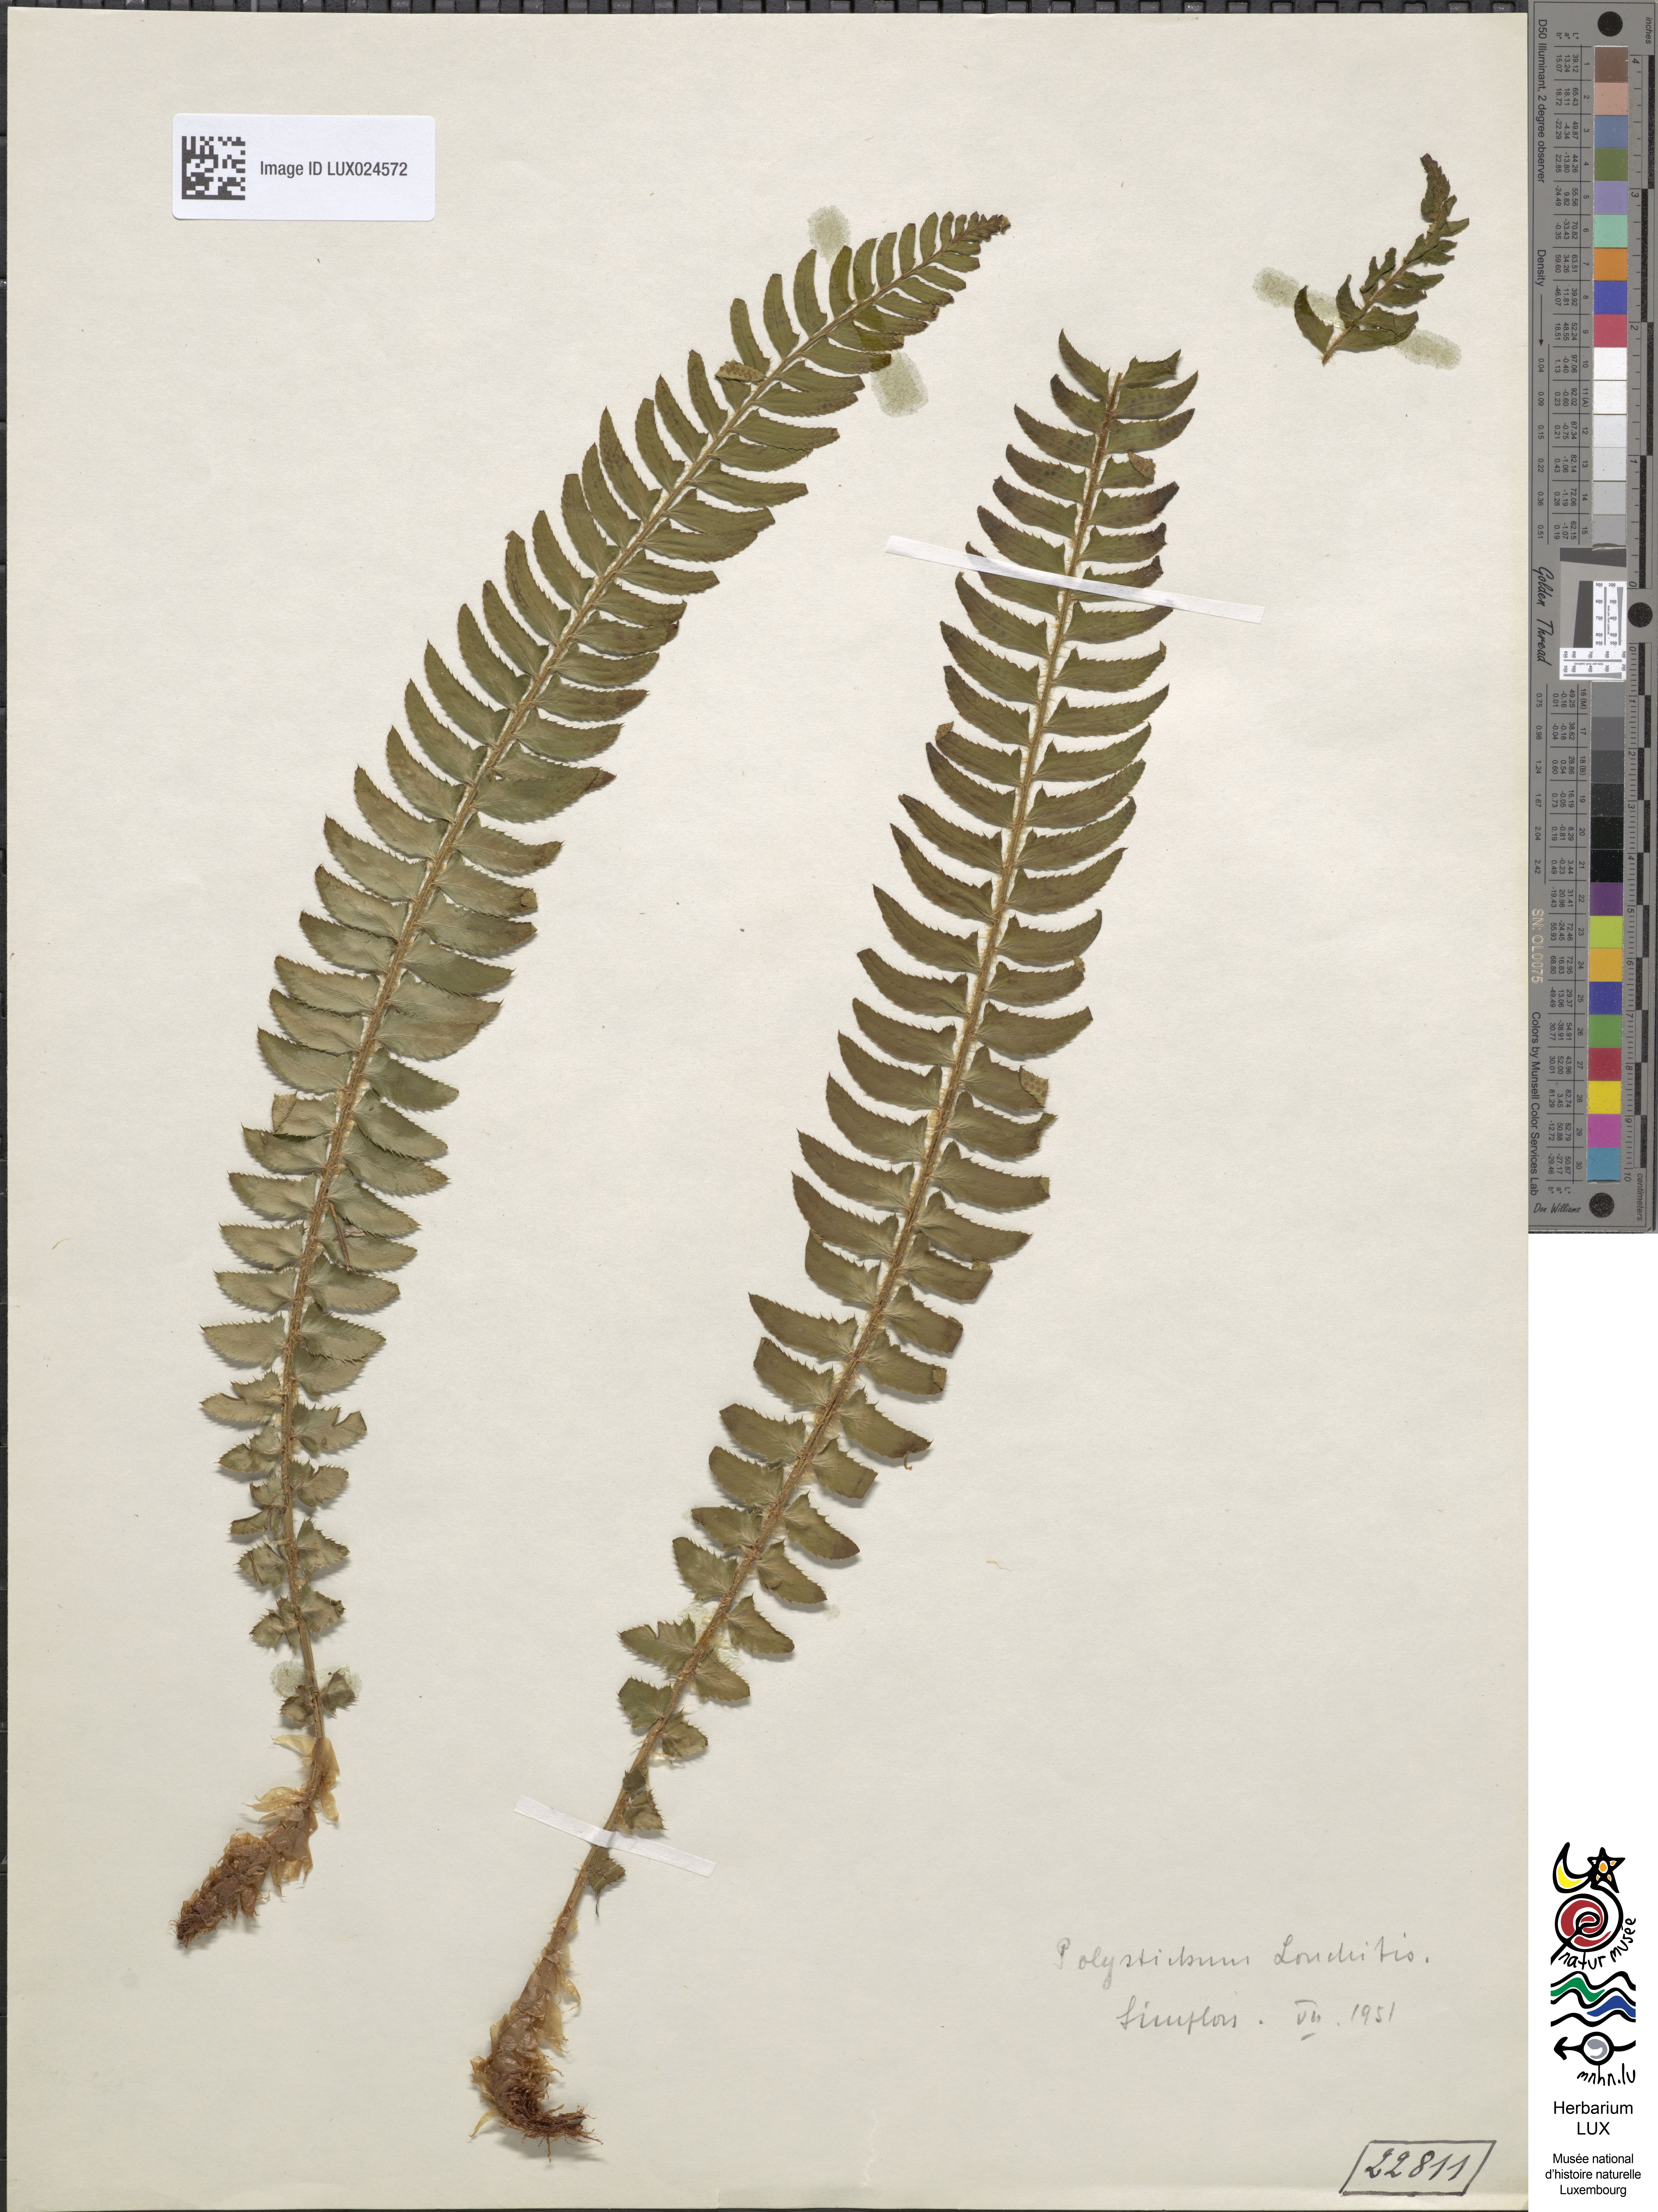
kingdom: Plantae
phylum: Tracheophyta
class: Polypodiopsida
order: Polypodiales
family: Dryopteridaceae
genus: Polystichum
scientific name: Polystichum lonchitis
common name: Holly fern
